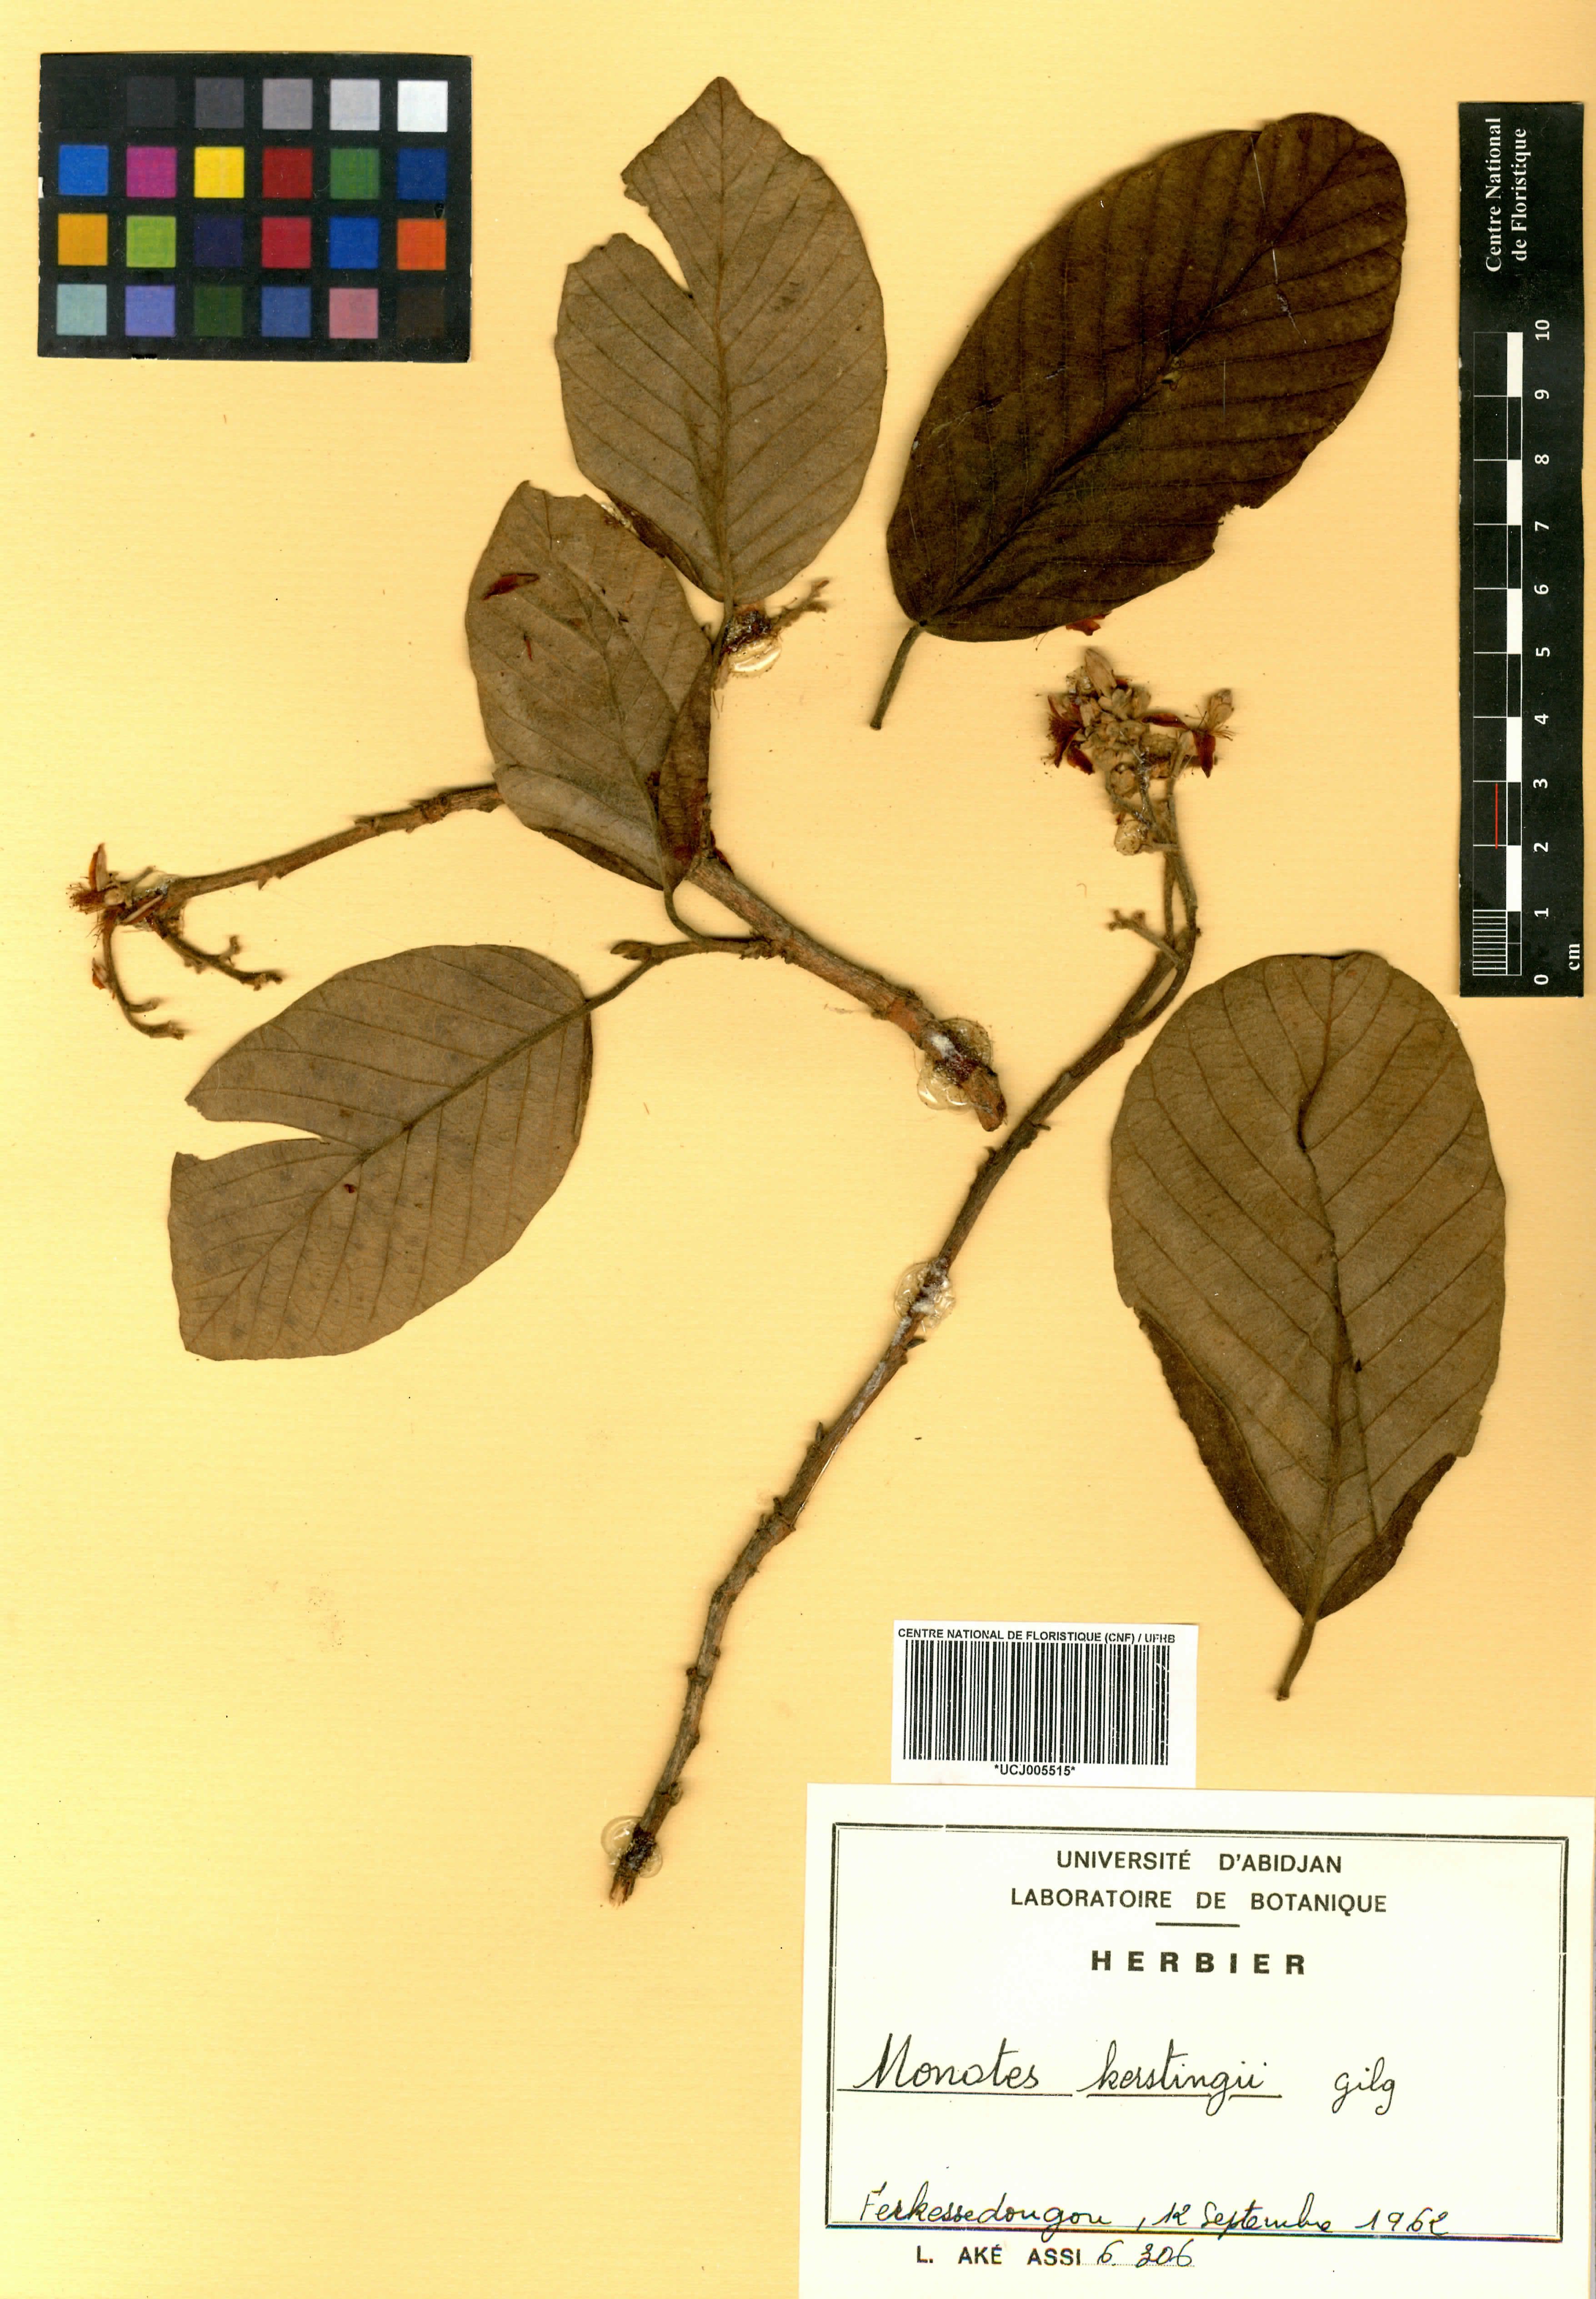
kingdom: Plantae
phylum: Tracheophyta
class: Magnoliopsida
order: Malvales
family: Dipterocarpaceae
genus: Monotes
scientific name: Monotes kerstingii
